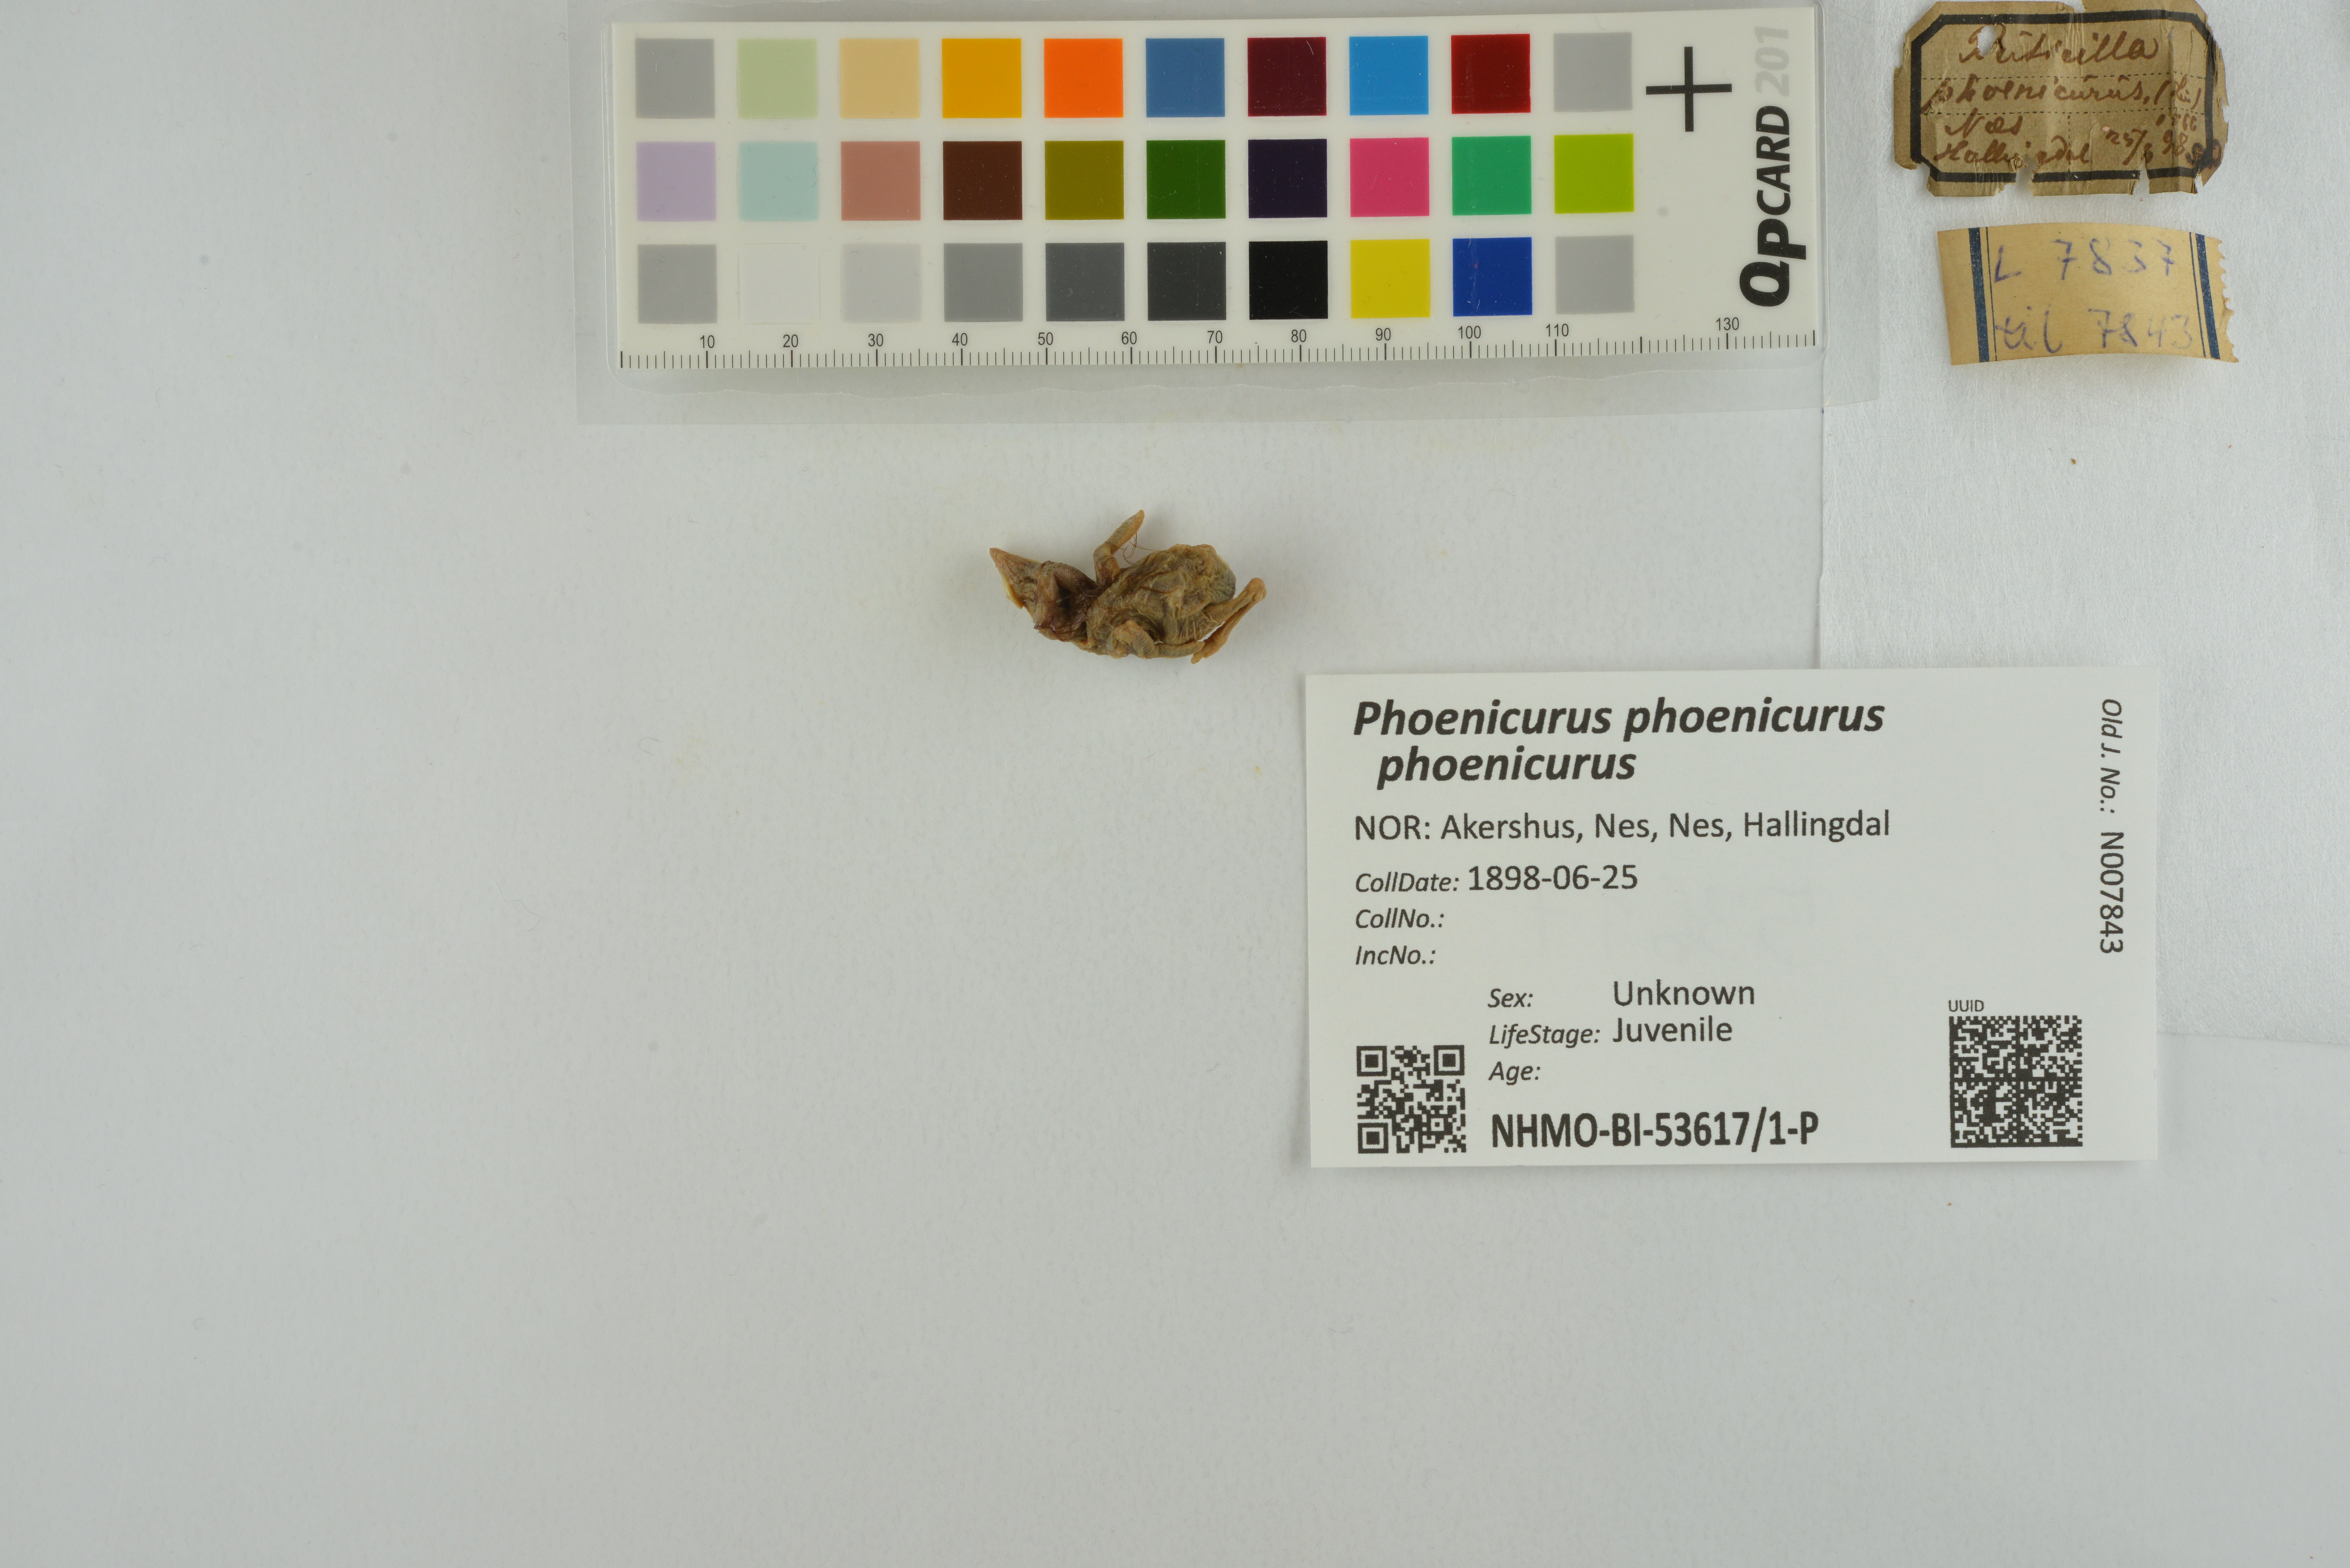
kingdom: Animalia
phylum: Chordata
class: Aves
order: Passeriformes
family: Muscicapidae
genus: Phoenicurus
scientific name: Phoenicurus phoenicurus
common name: Common redstart
